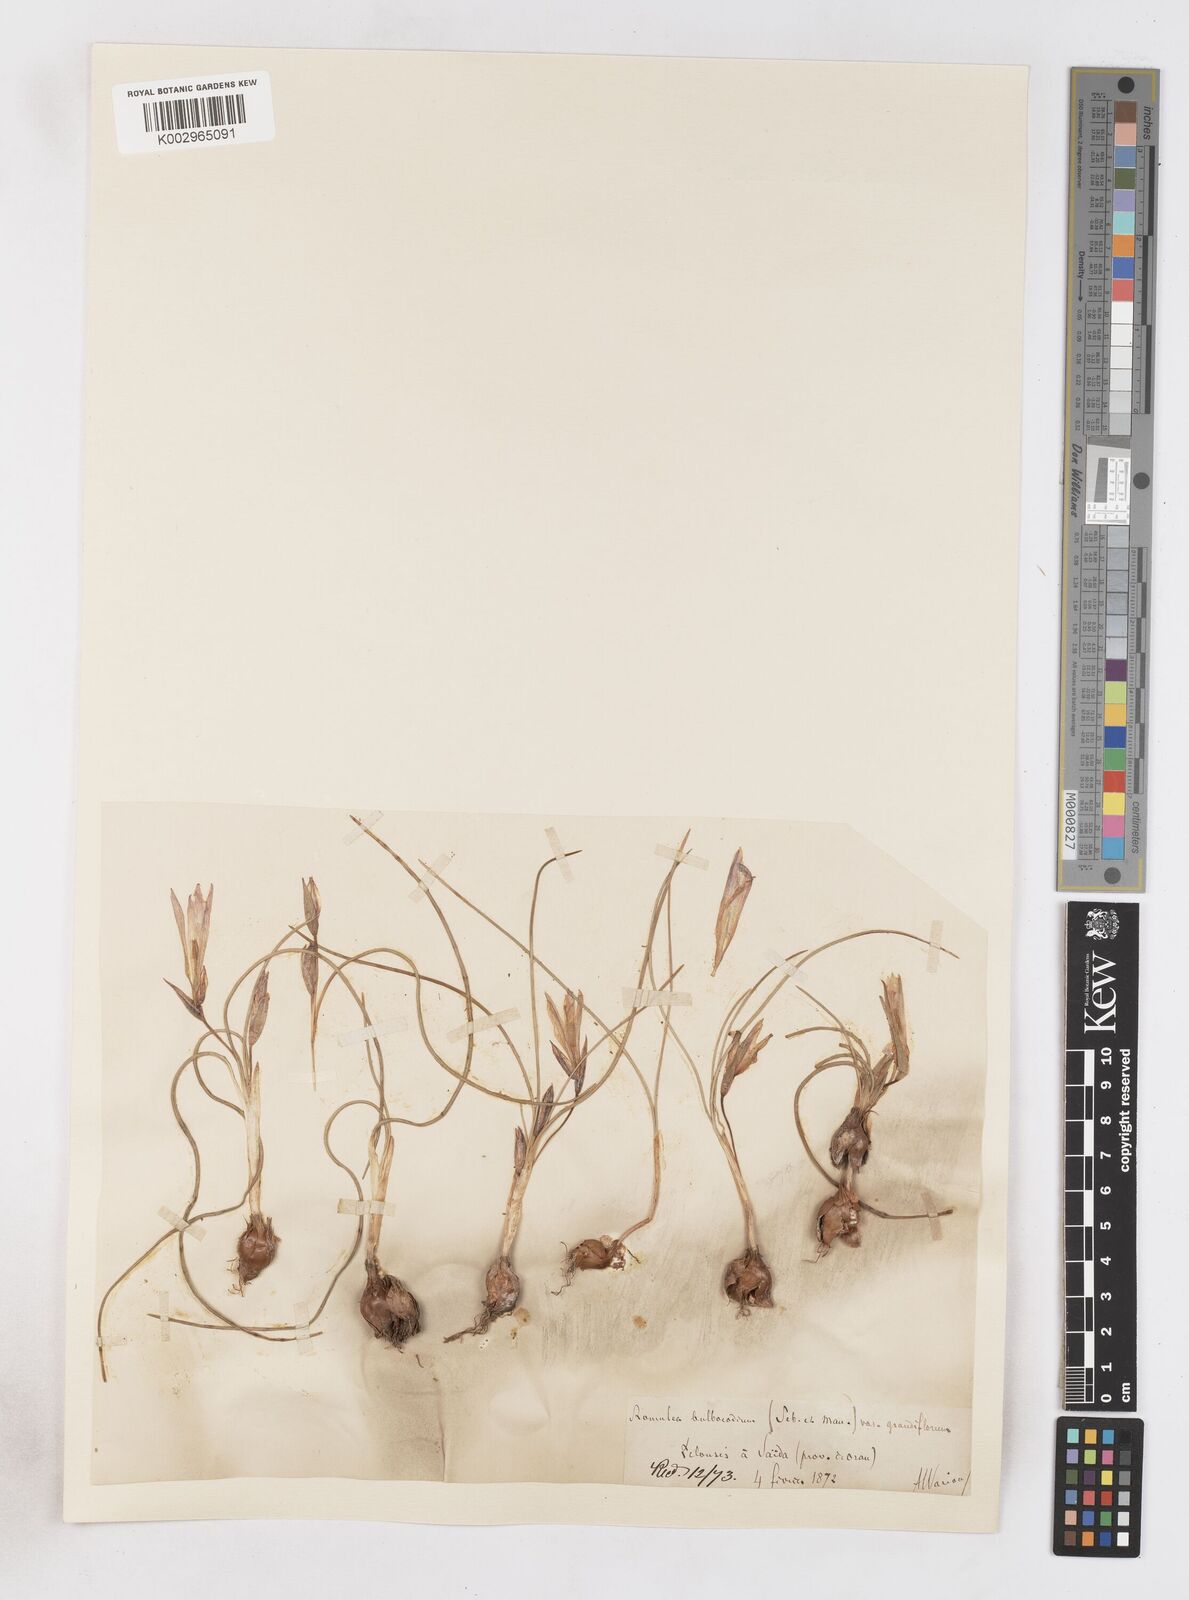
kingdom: Plantae
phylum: Tracheophyta
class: Liliopsida
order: Asparagales
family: Iridaceae
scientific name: Iridaceae
